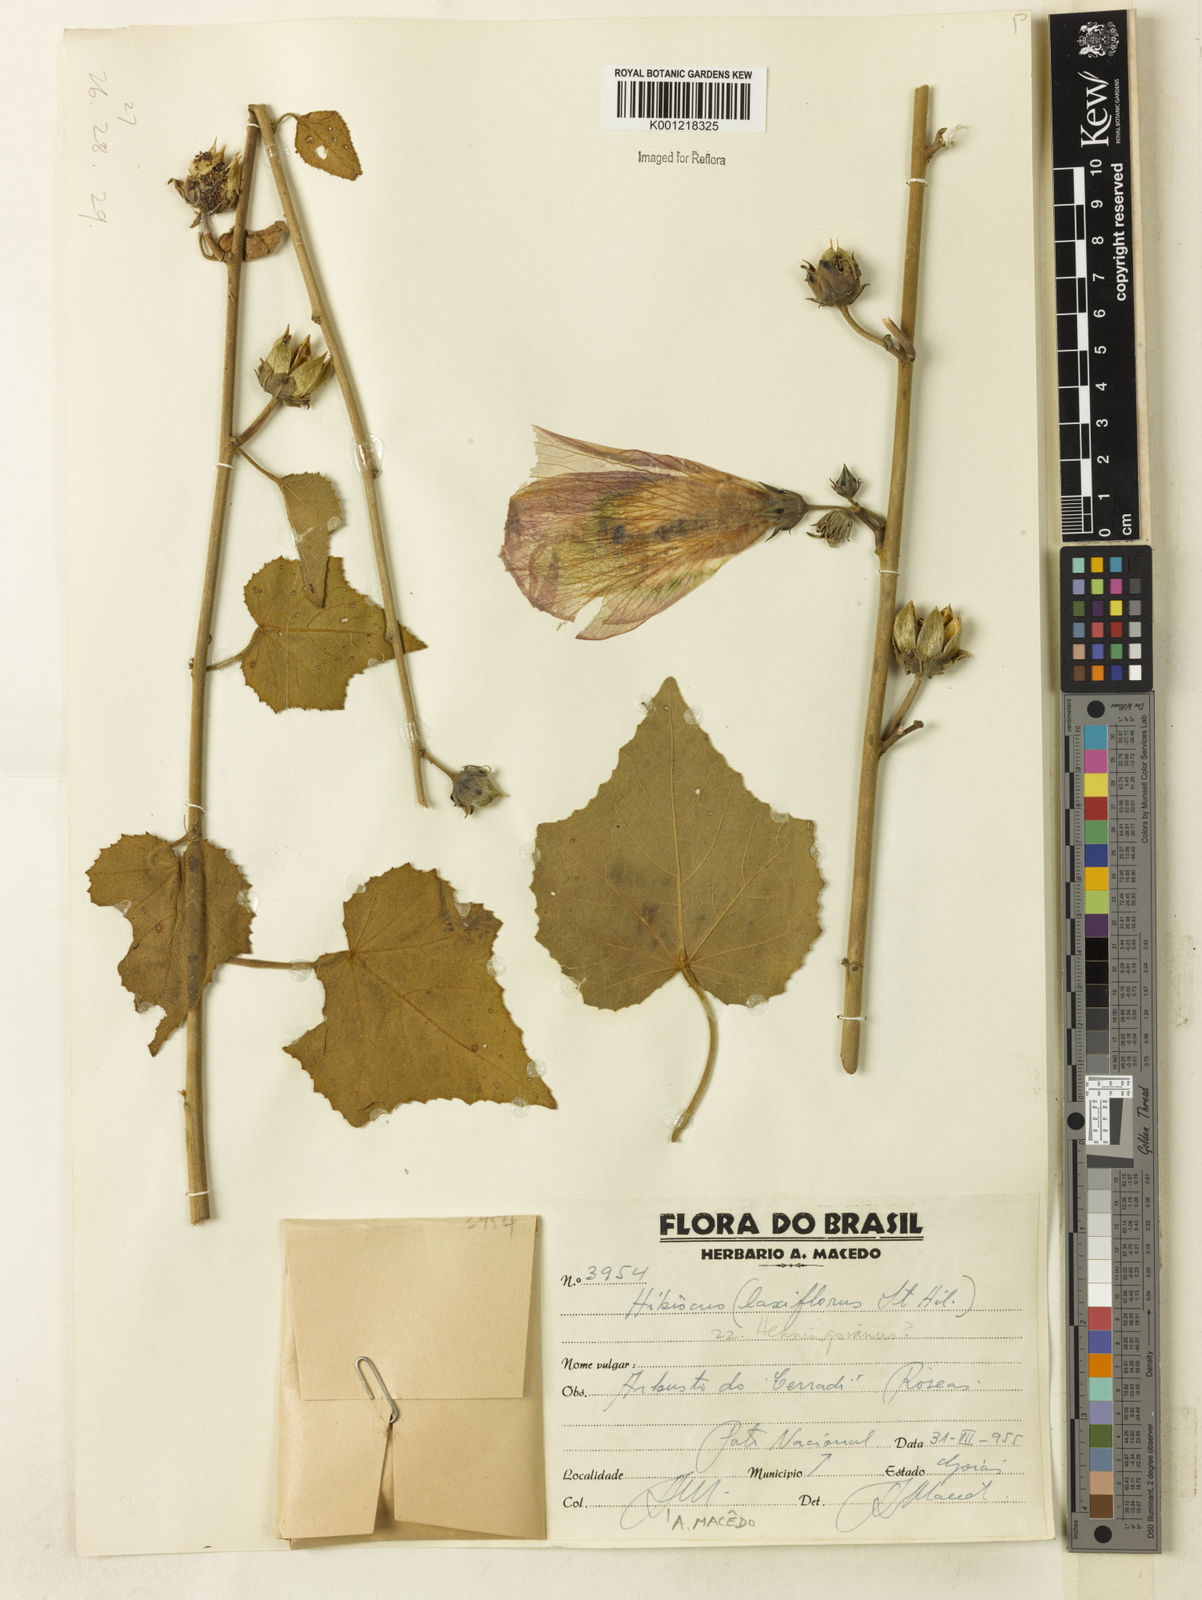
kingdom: Plantae
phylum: Tracheophyta
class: Magnoliopsida
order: Malvales
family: Malvaceae
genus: Hibiscus
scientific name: Hibiscus
